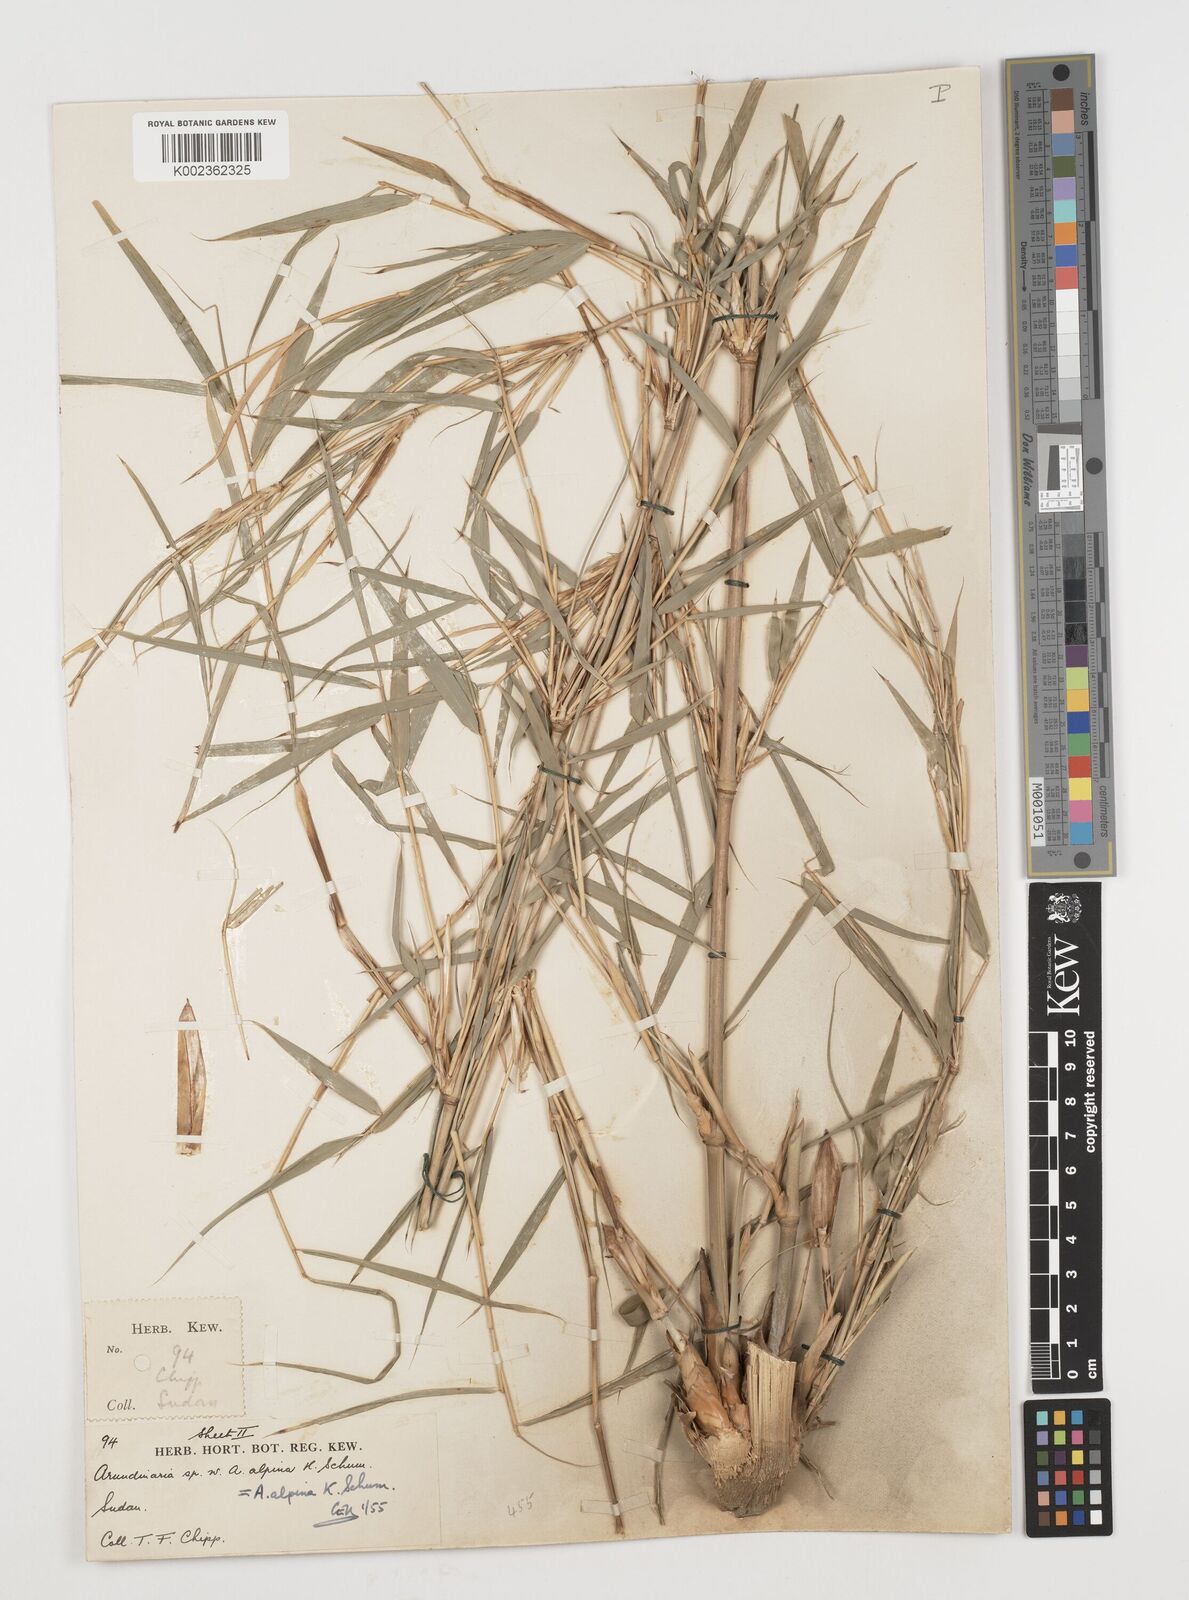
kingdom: Plantae
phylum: Tracheophyta
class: Liliopsida
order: Poales
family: Poaceae
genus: Oldeania
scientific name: Oldeania alpina
